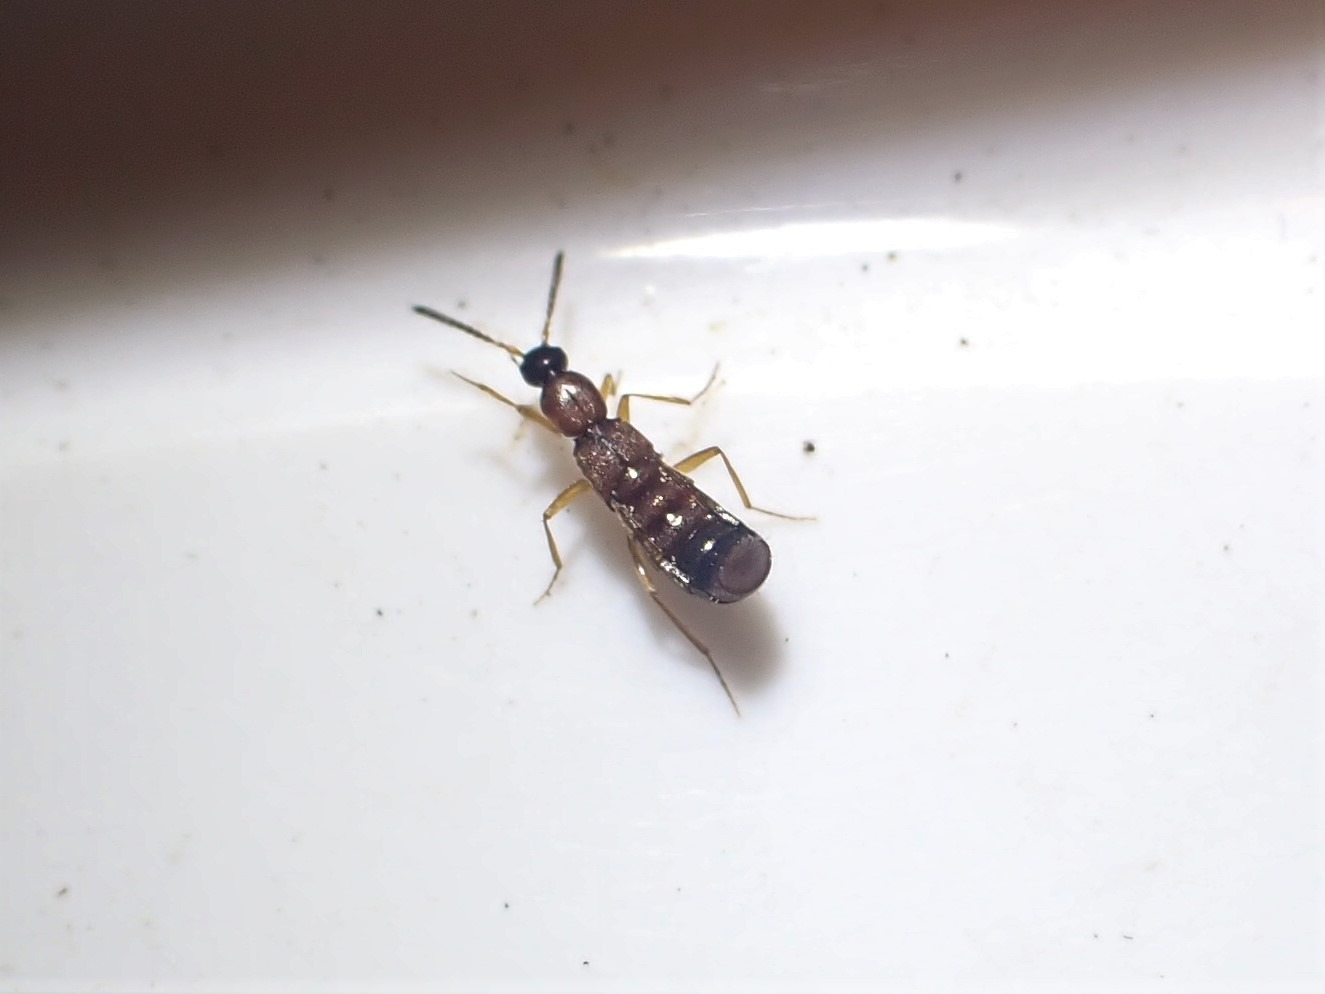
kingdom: Animalia
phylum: Arthropoda
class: Insecta
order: Coleoptera
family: Staphylinidae
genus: Drusilla
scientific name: Drusilla canaliculata
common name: Myrerøver
